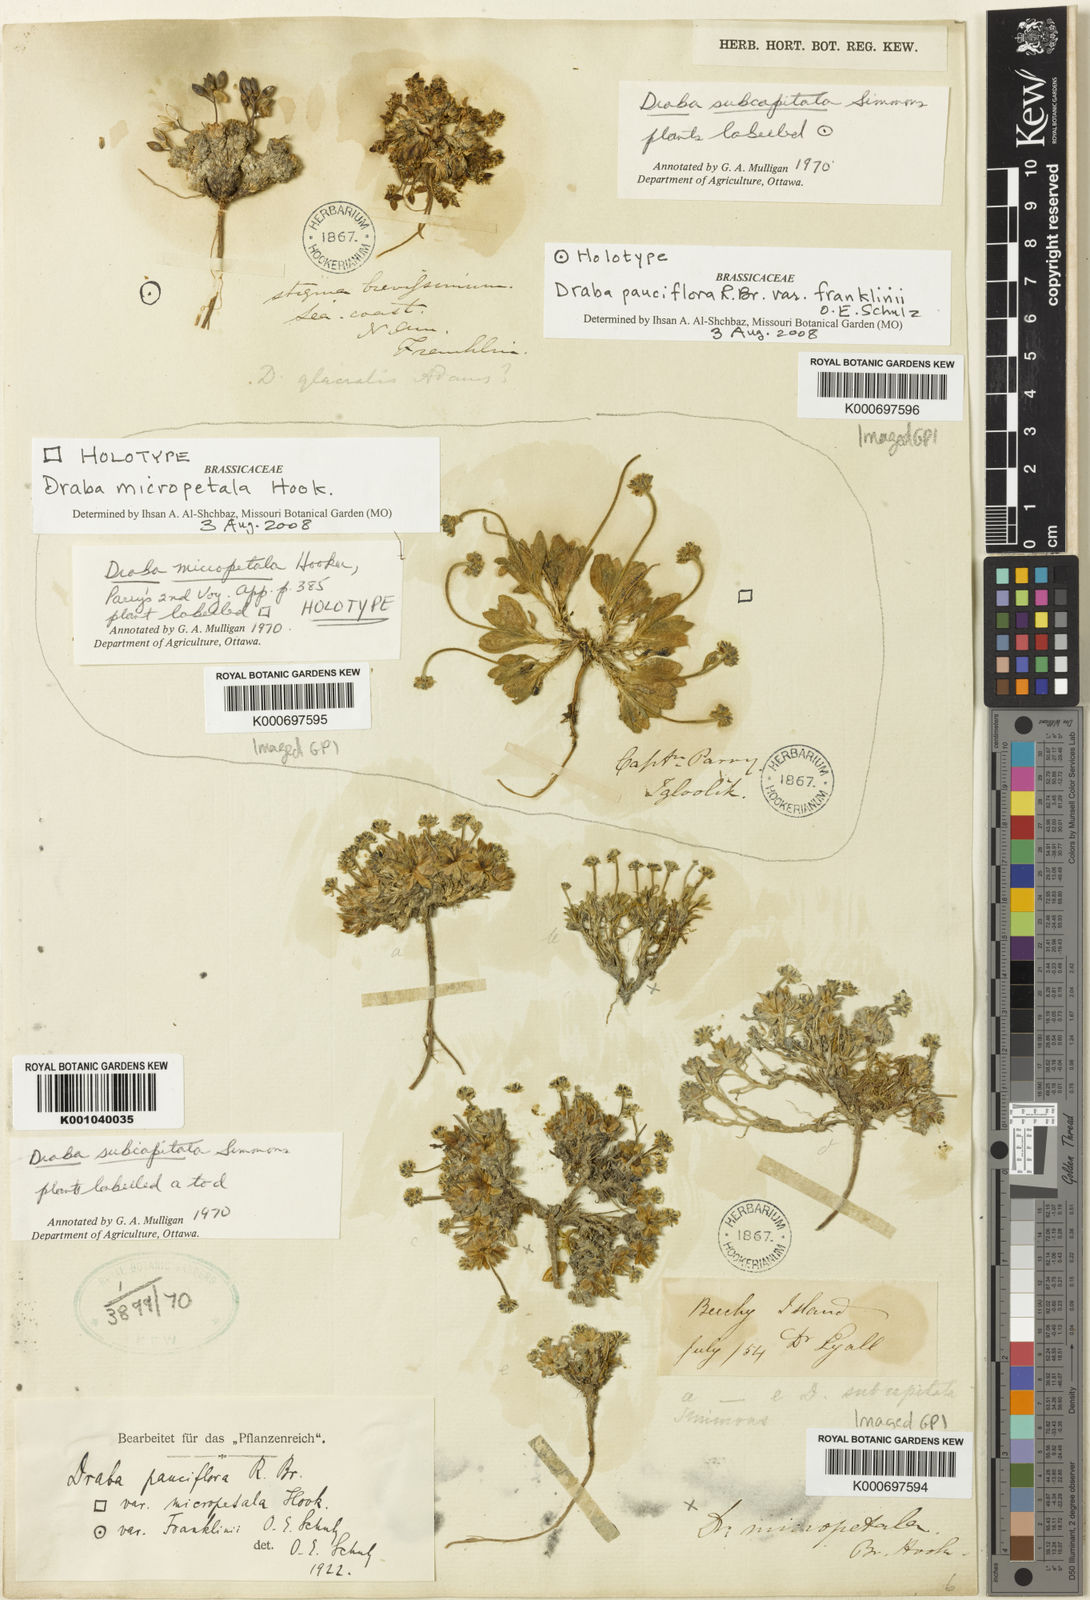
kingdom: Plantae
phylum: Tracheophyta
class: Magnoliopsida
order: Brassicales
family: Brassicaceae
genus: Draba
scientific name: Draba micropetala
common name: Small-flowered draba
